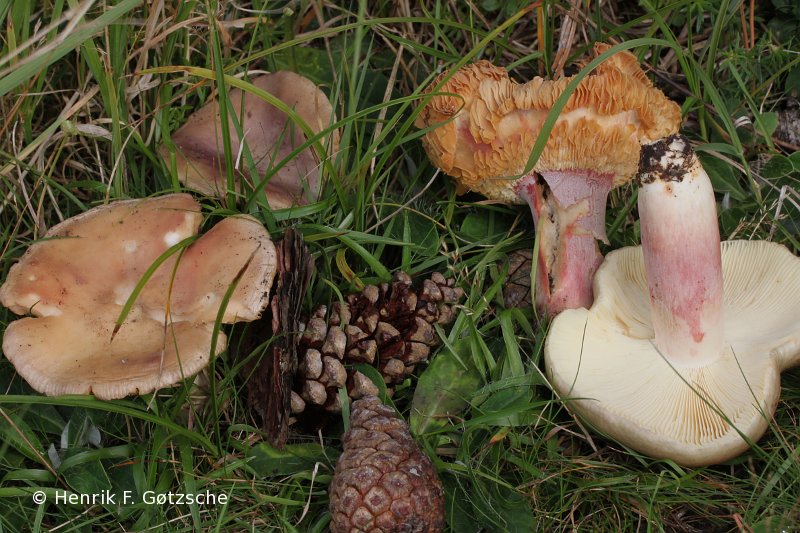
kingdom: Fungi
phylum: Basidiomycota
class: Agaricomycetes
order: Russulales
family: Russulaceae
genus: Russula
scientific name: Russula sardonia
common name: citronbladet skørhat
